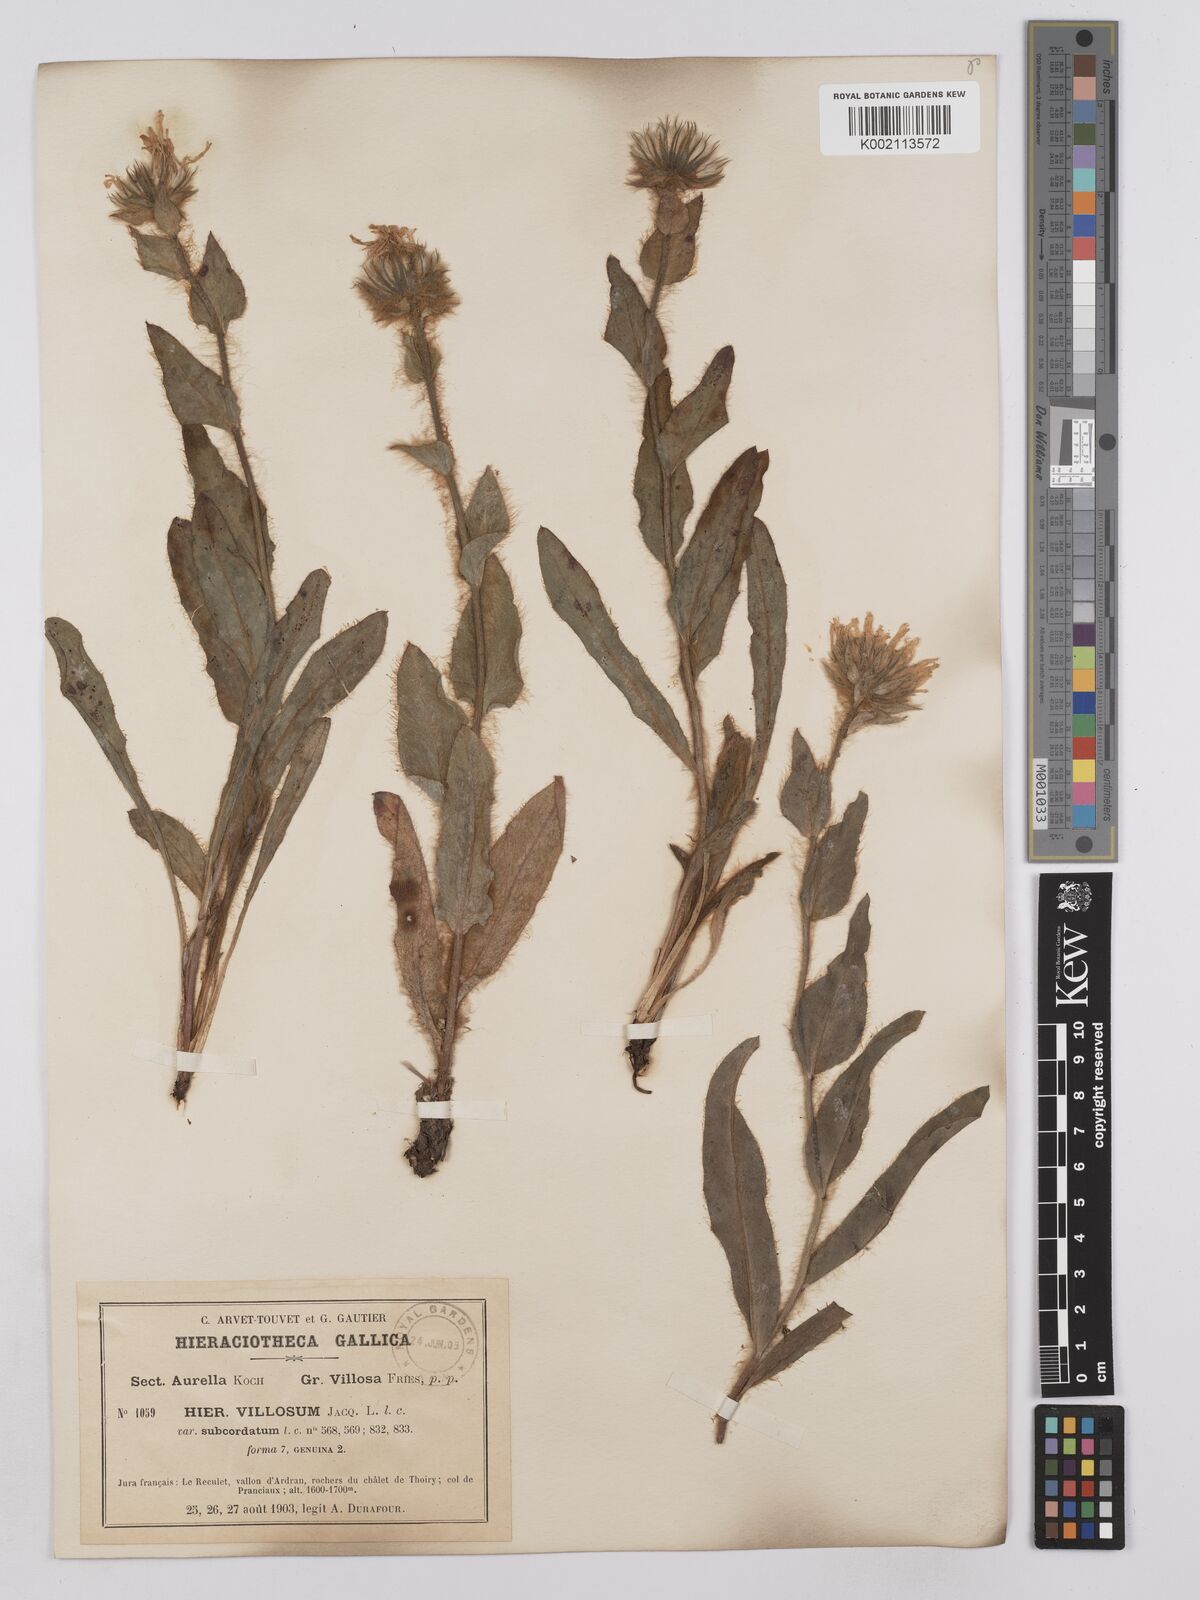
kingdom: Plantae
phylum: Tracheophyta
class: Magnoliopsida
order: Asterales
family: Asteraceae
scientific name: Asteraceae
